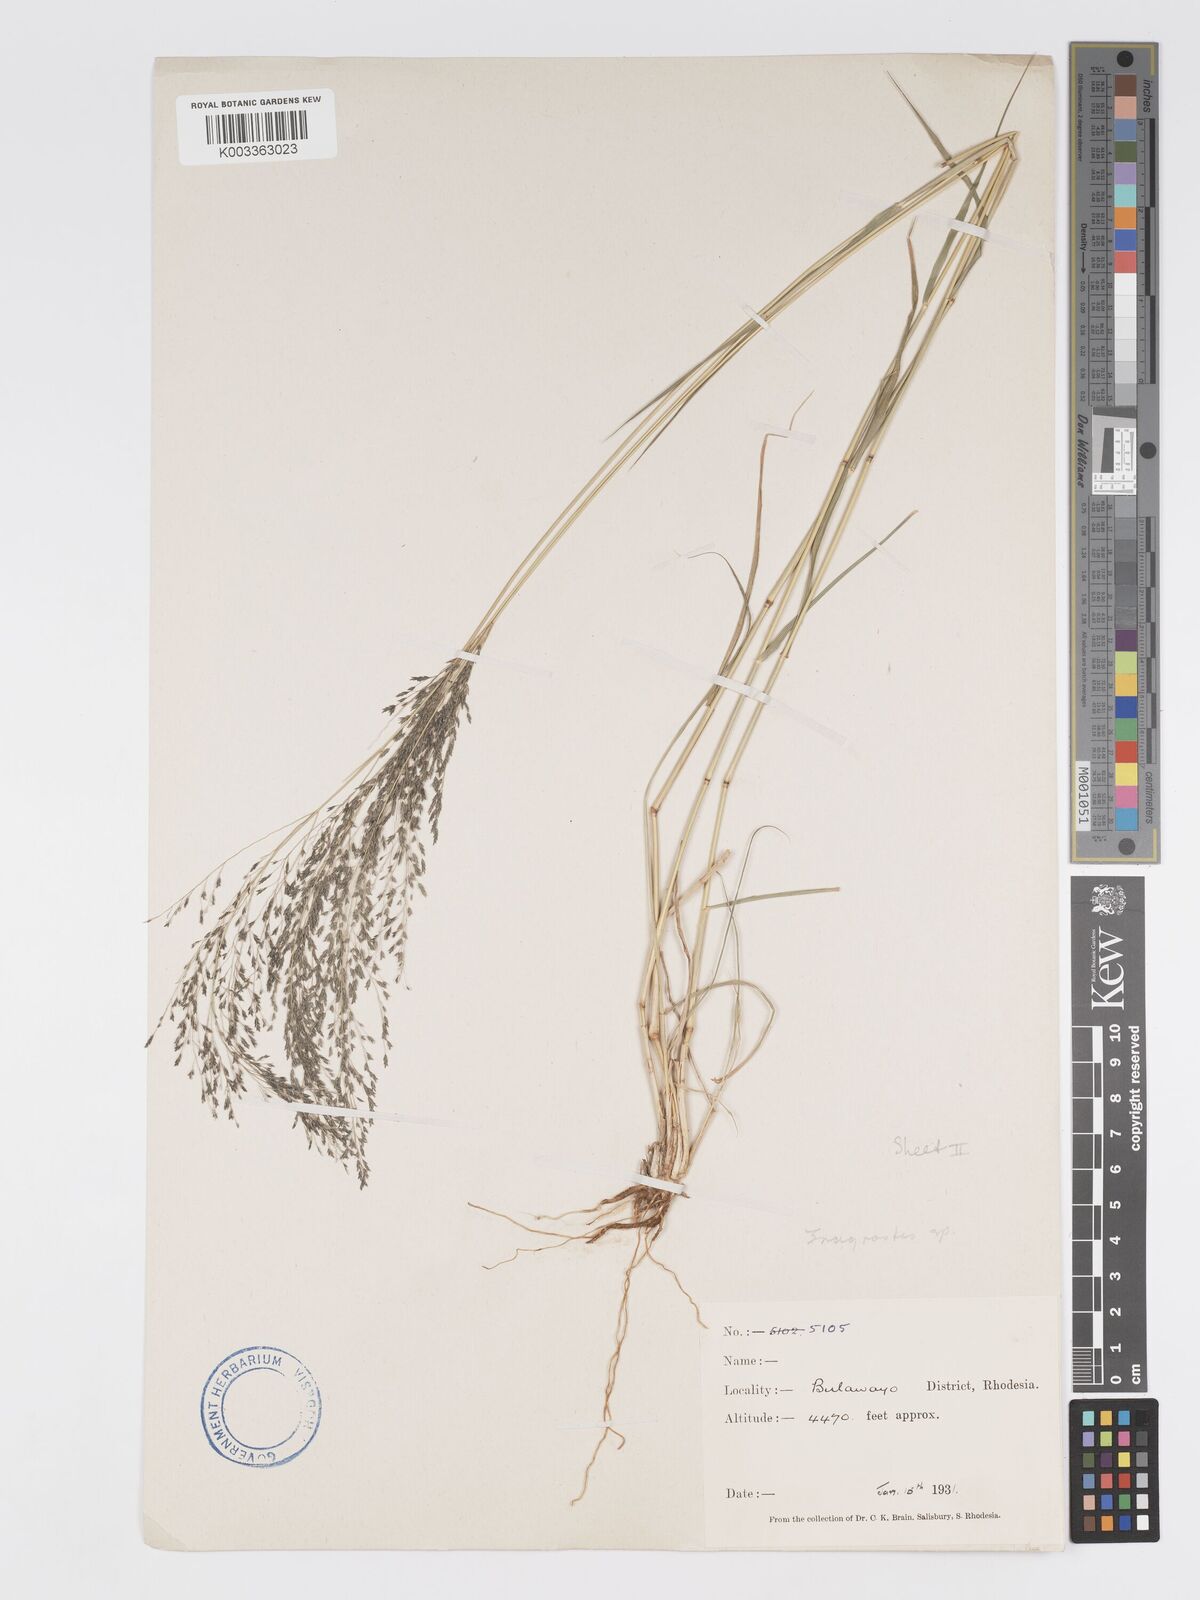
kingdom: Plantae
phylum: Tracheophyta
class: Liliopsida
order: Poales
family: Poaceae
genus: Eragrostis
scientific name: Eragrostis cylindriflora
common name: Cylinderflower lovegrass
